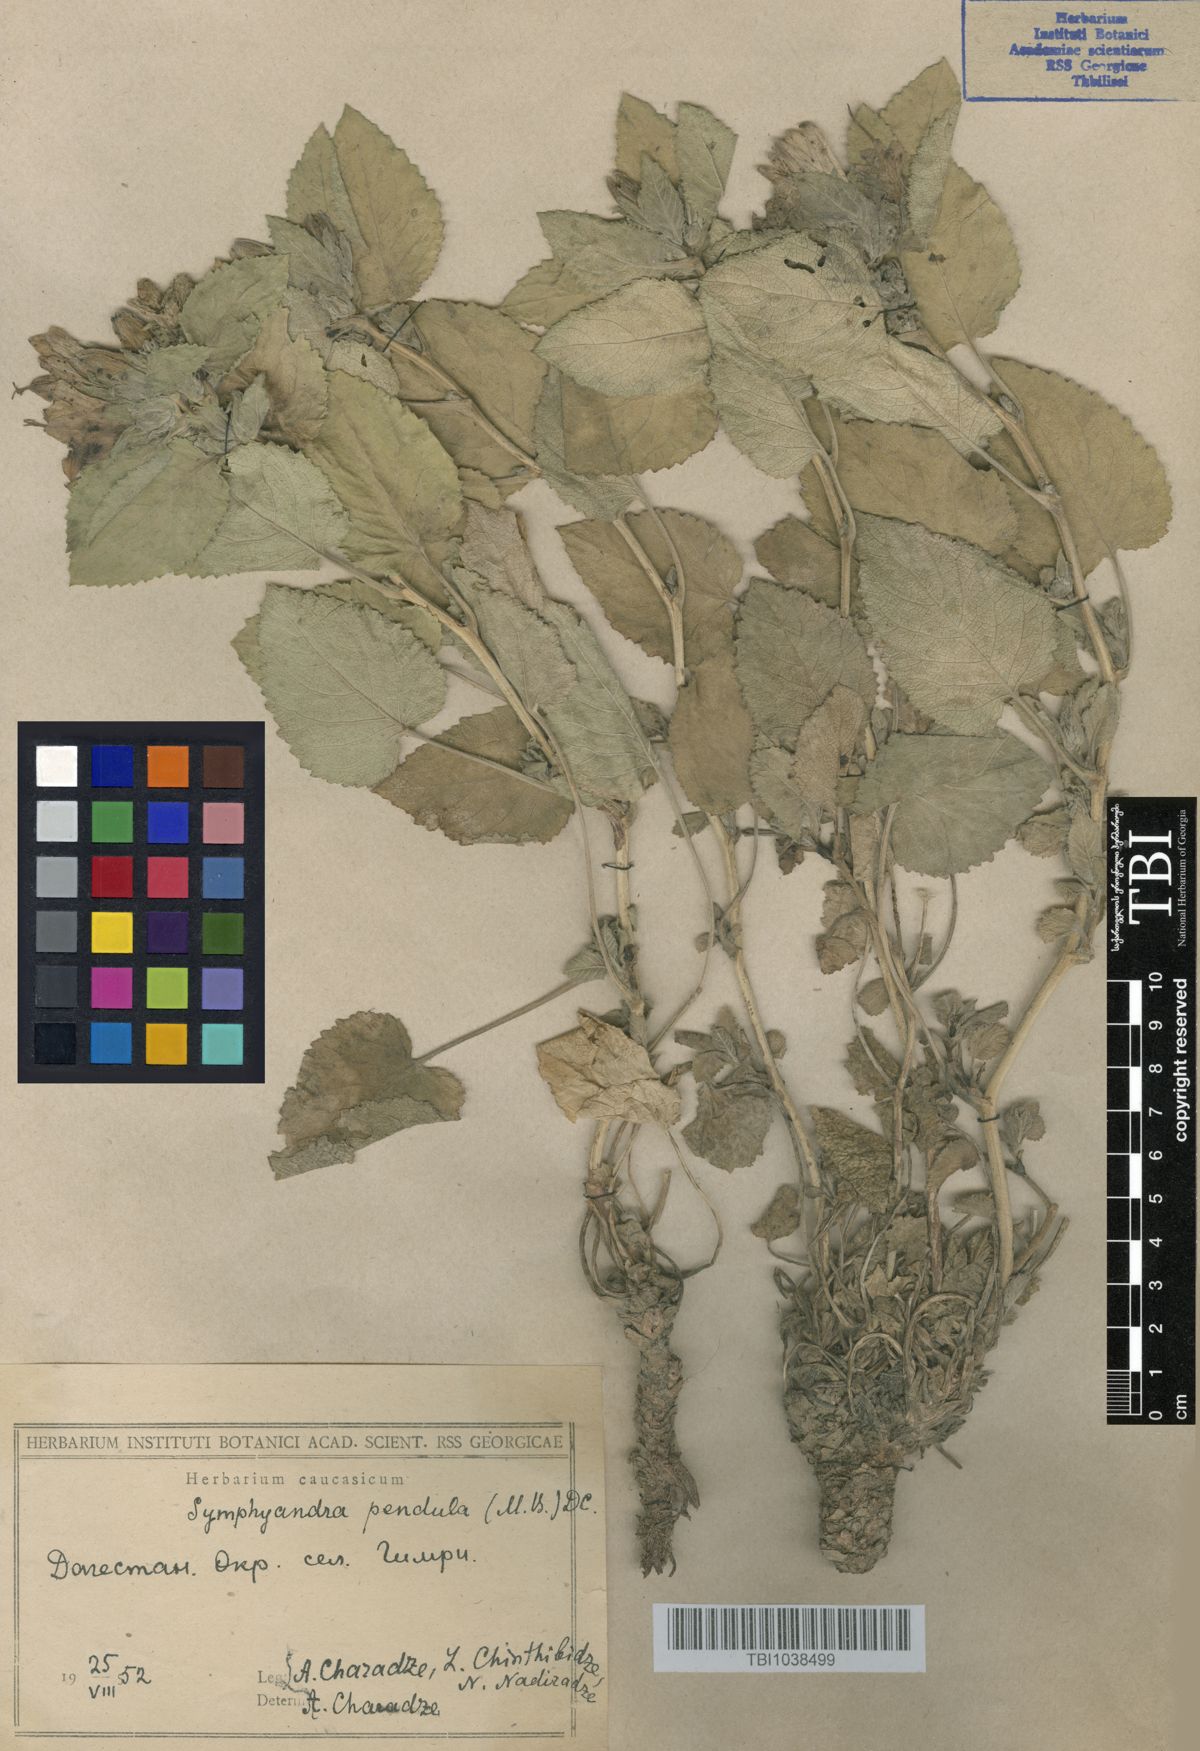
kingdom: Plantae
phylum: Tracheophyta
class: Magnoliopsida
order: Asterales
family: Campanulaceae
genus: Campanula
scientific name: Campanula pendula
